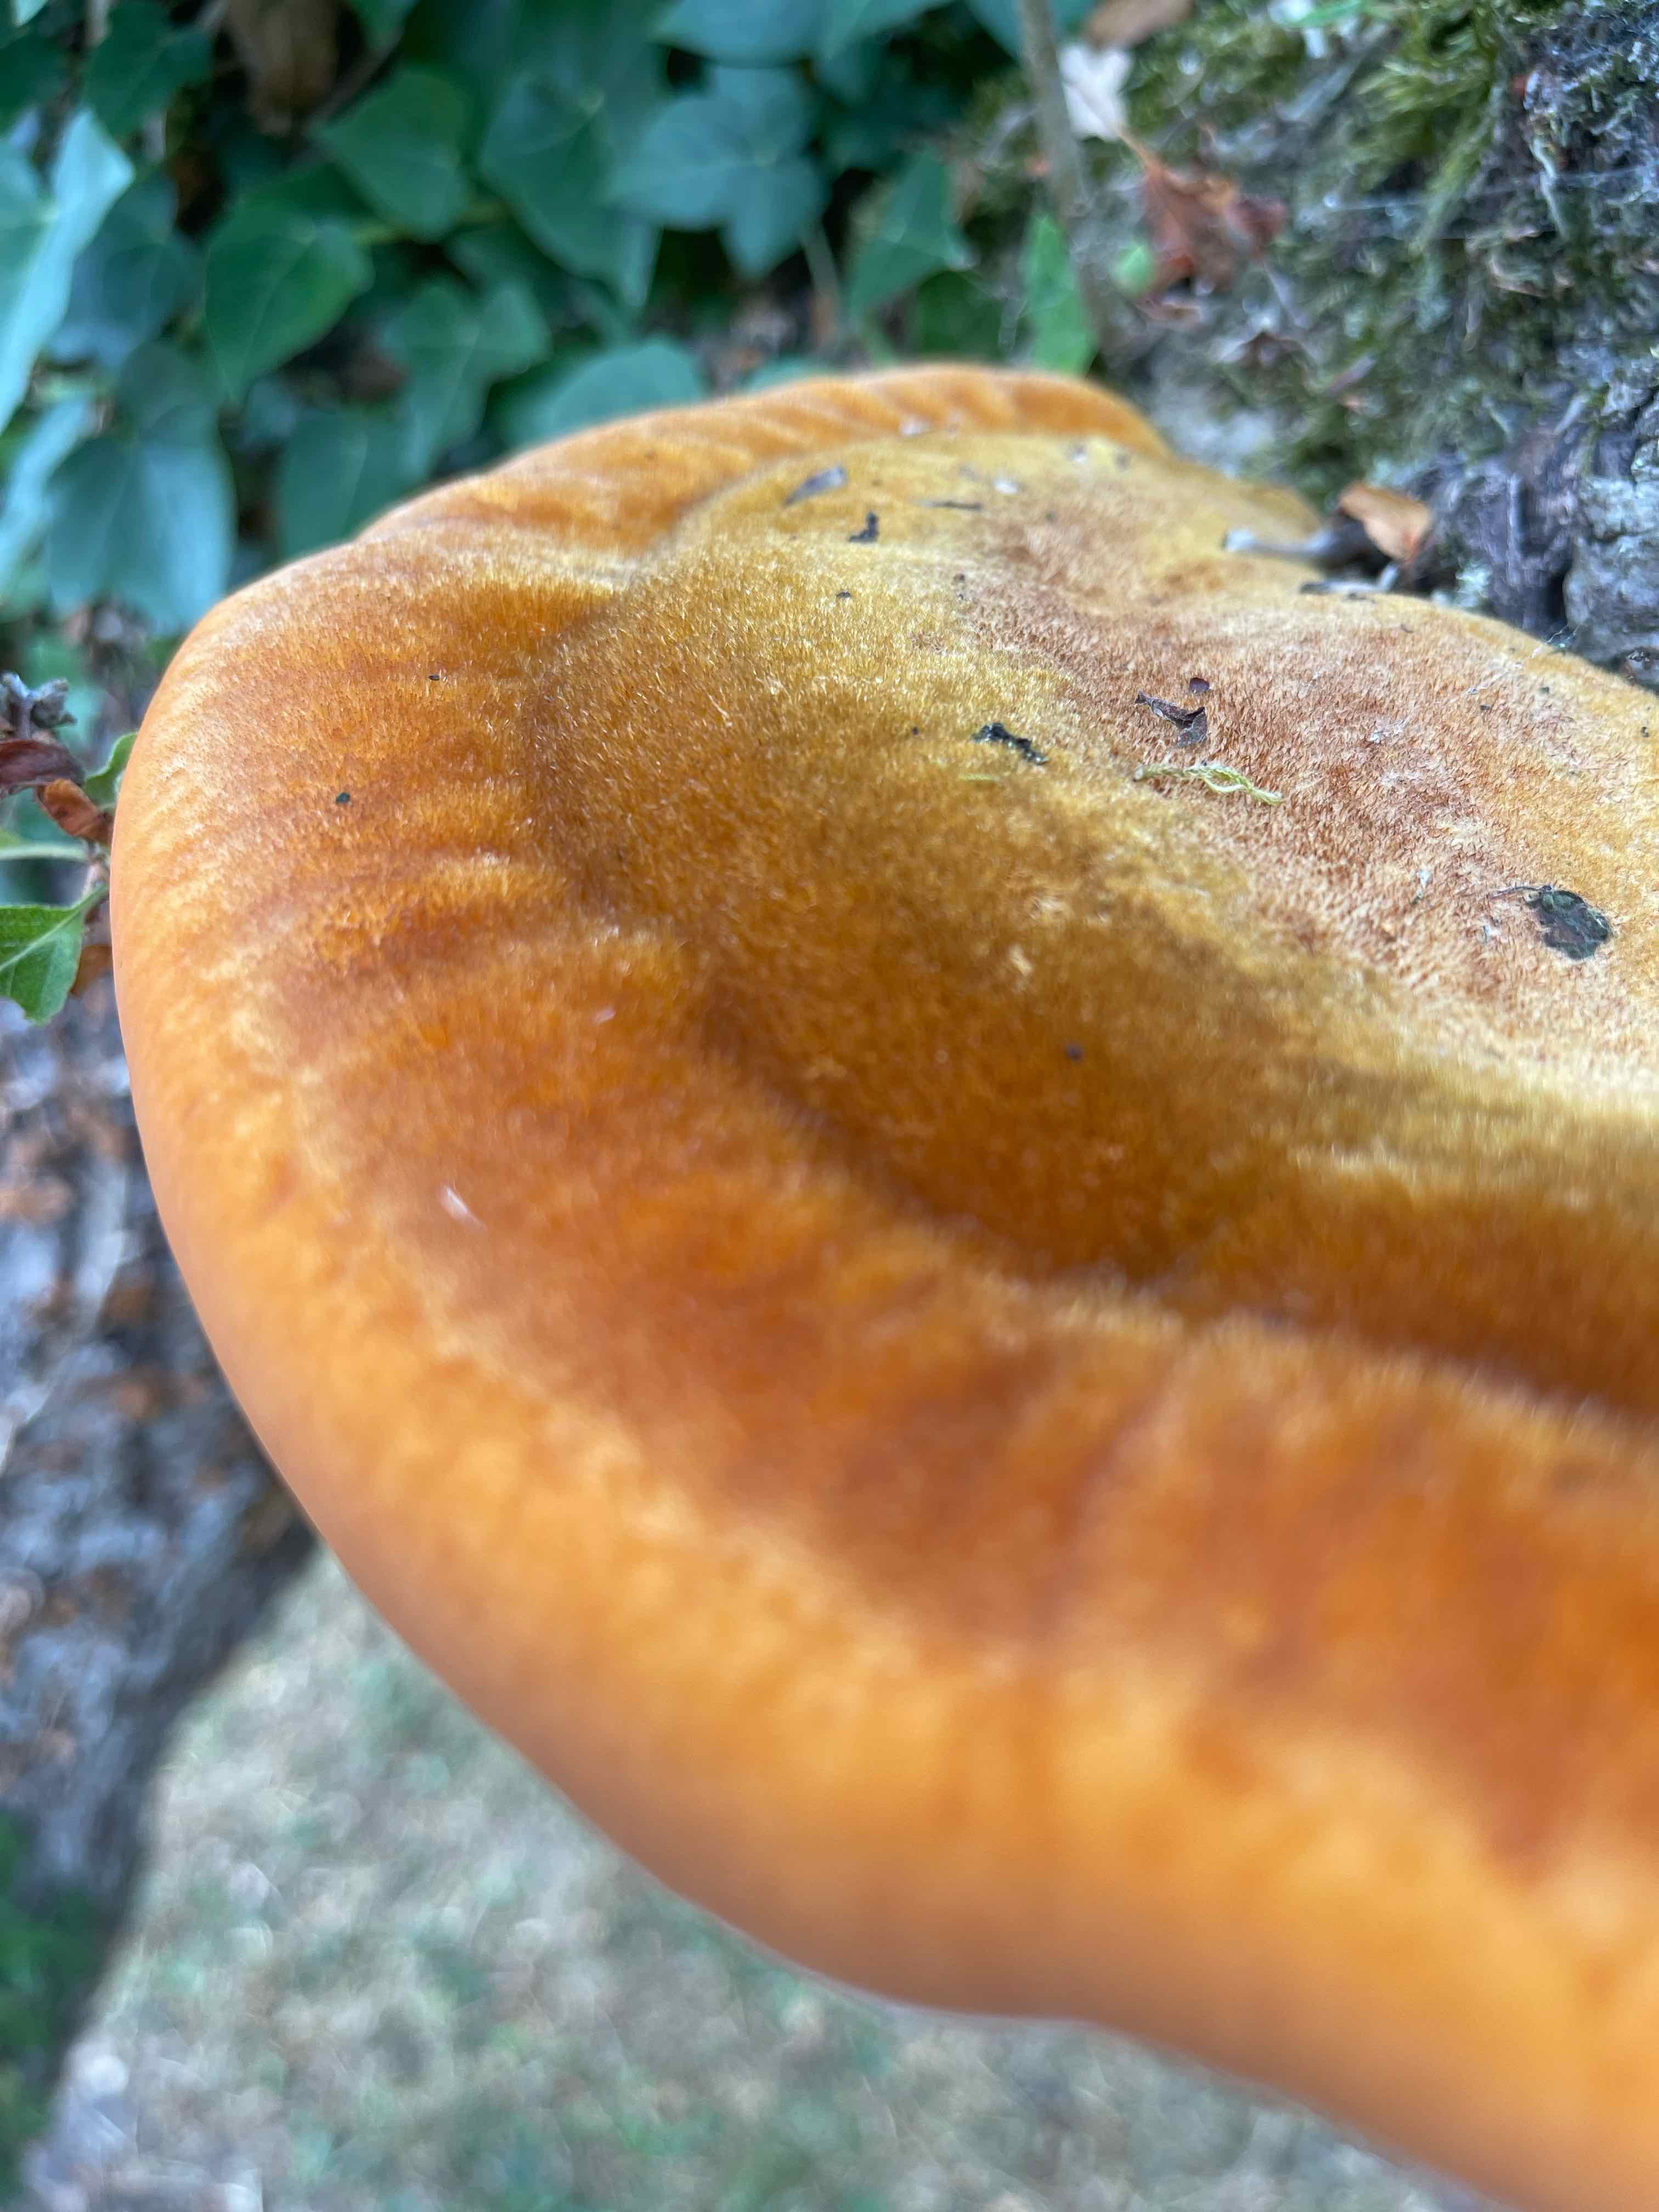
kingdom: Fungi
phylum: Basidiomycota
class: Agaricomycetes
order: Hymenochaetales
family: Hymenochaetaceae
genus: Inonotus
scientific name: Inonotus hispidus
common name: børstehåret spejlporesvamp
